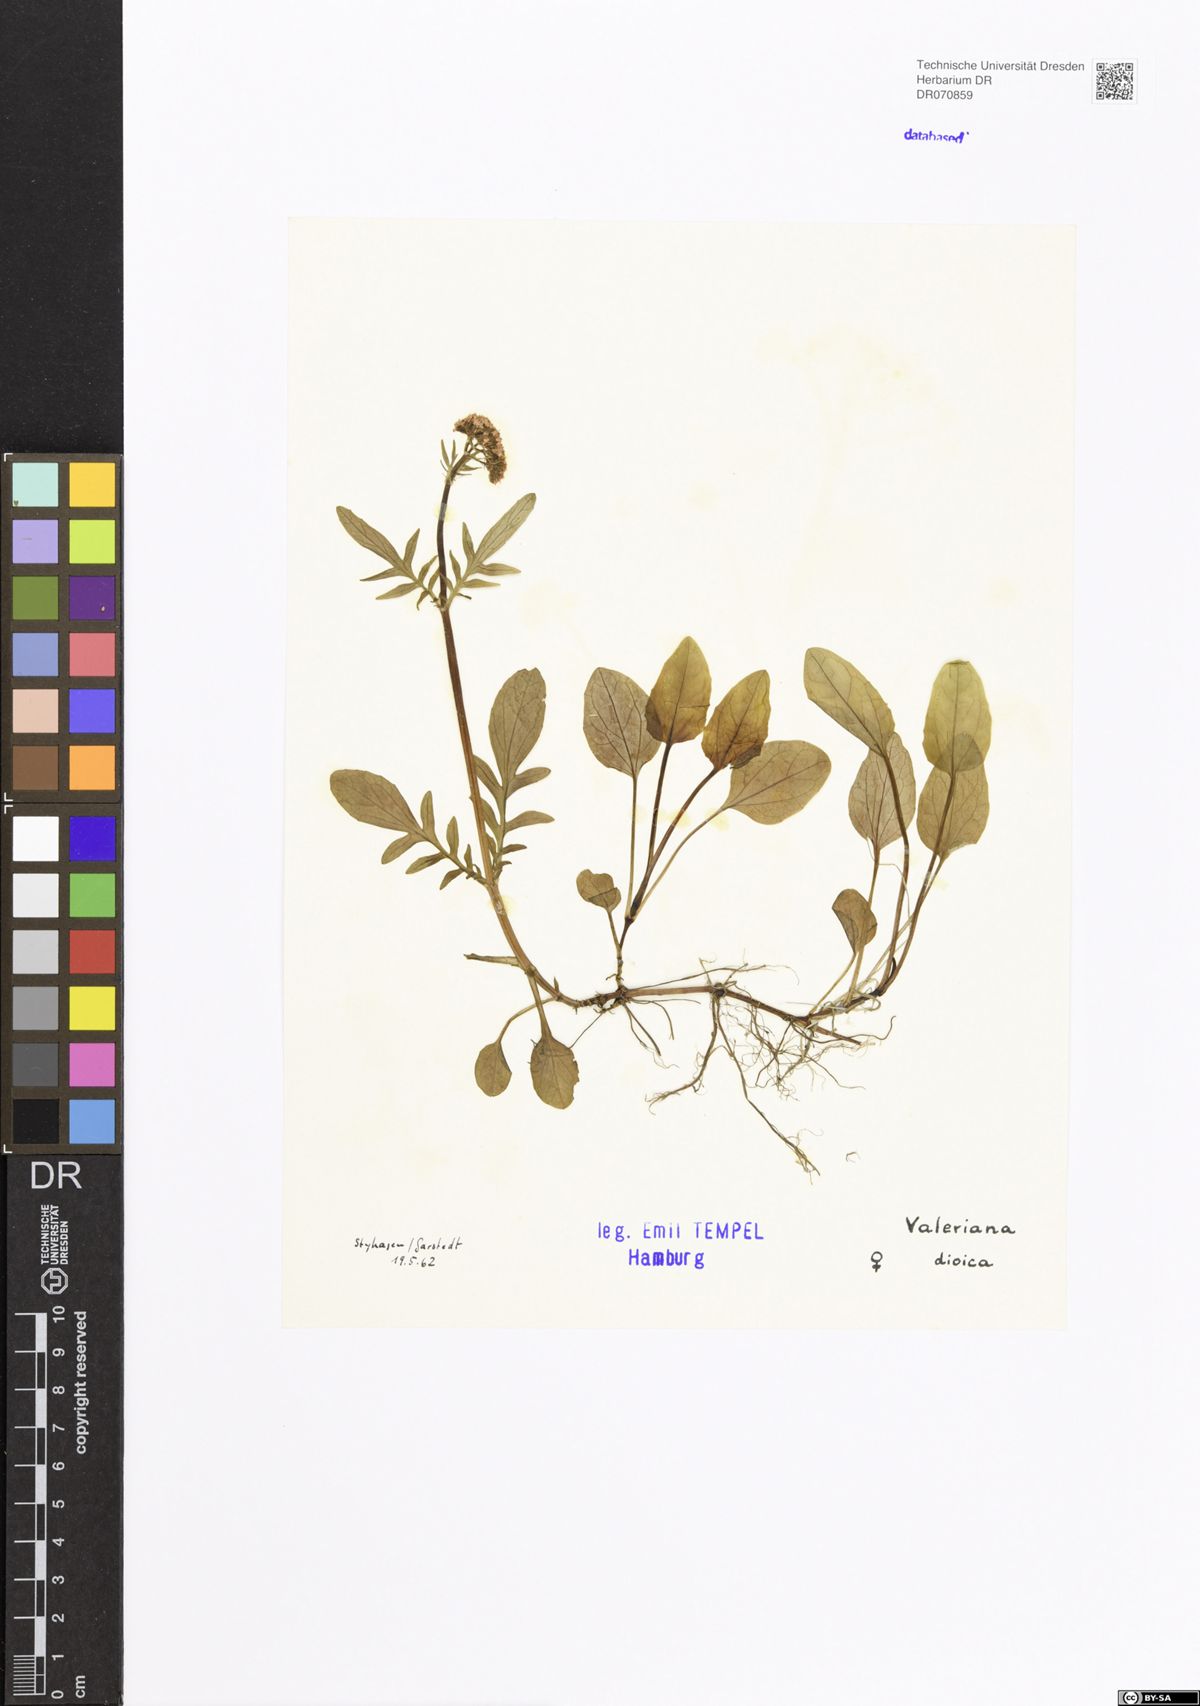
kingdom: Plantae
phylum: Tracheophyta
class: Magnoliopsida
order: Dipsacales
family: Caprifoliaceae
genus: Valeriana
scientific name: Valeriana dioica
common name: Marsh valerian
